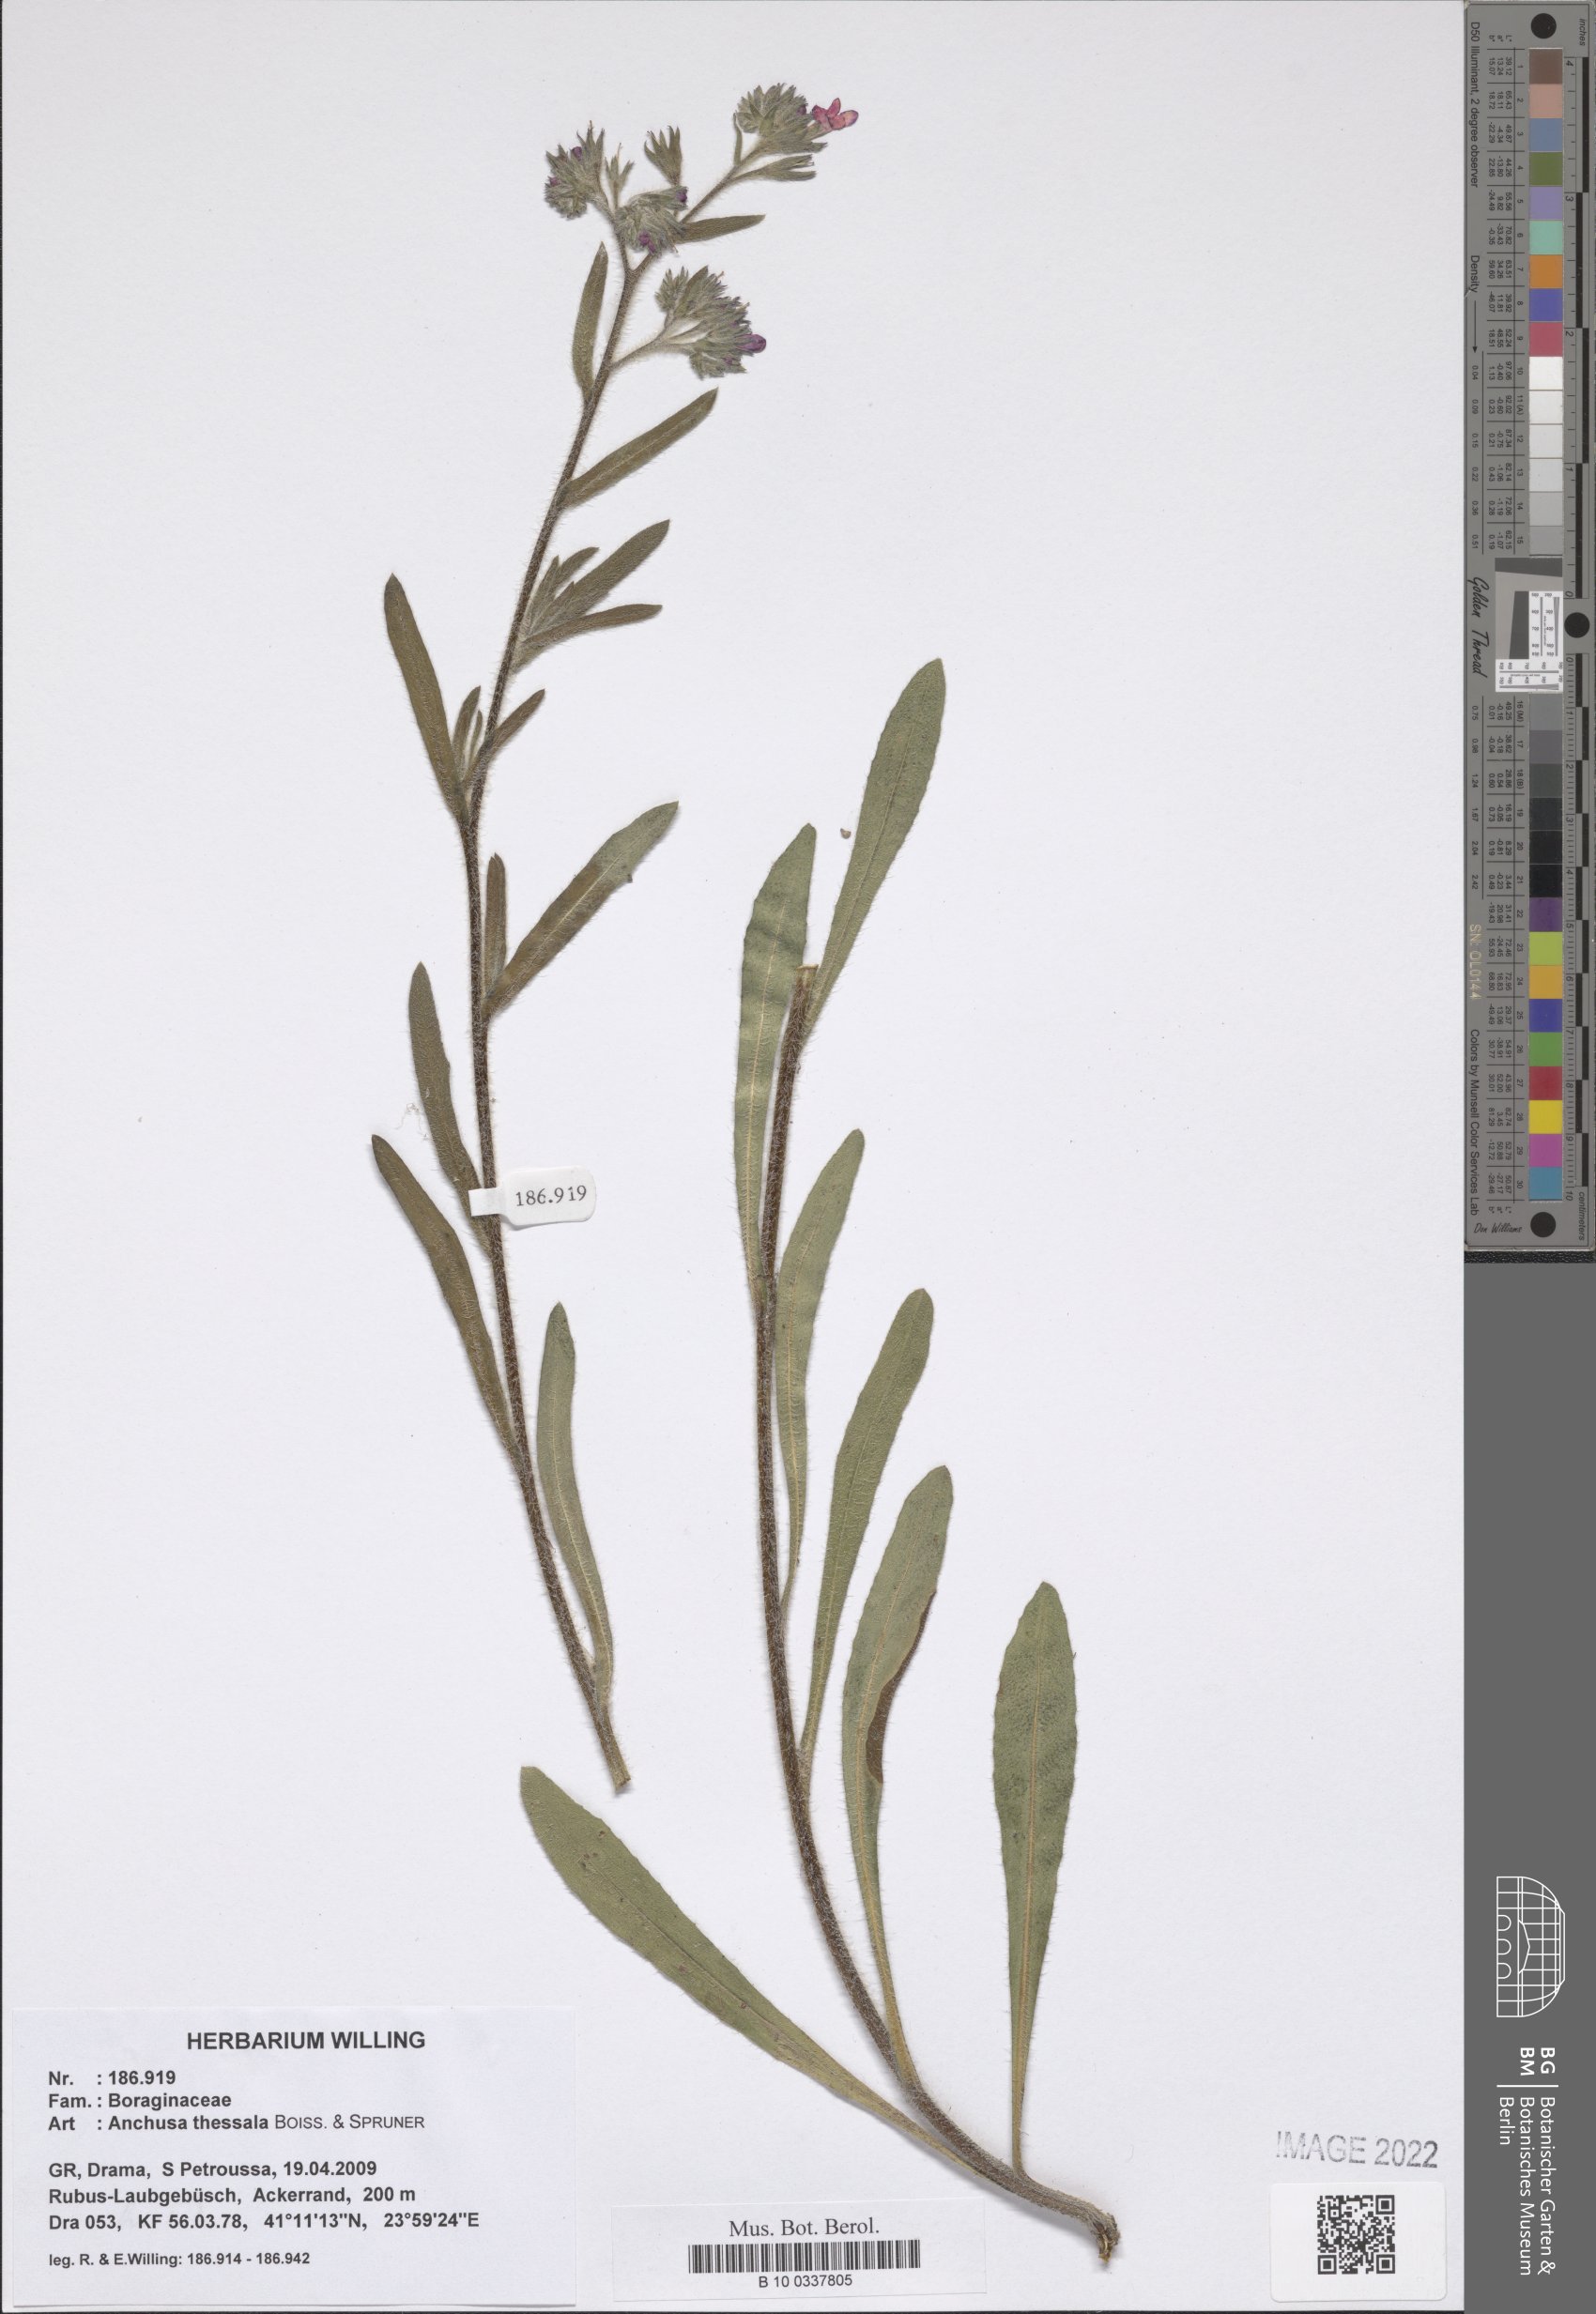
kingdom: Plantae
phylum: Tracheophyta
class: Magnoliopsida
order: Boraginales
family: Boraginaceae
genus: Anchusa
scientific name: Anchusa thessala
